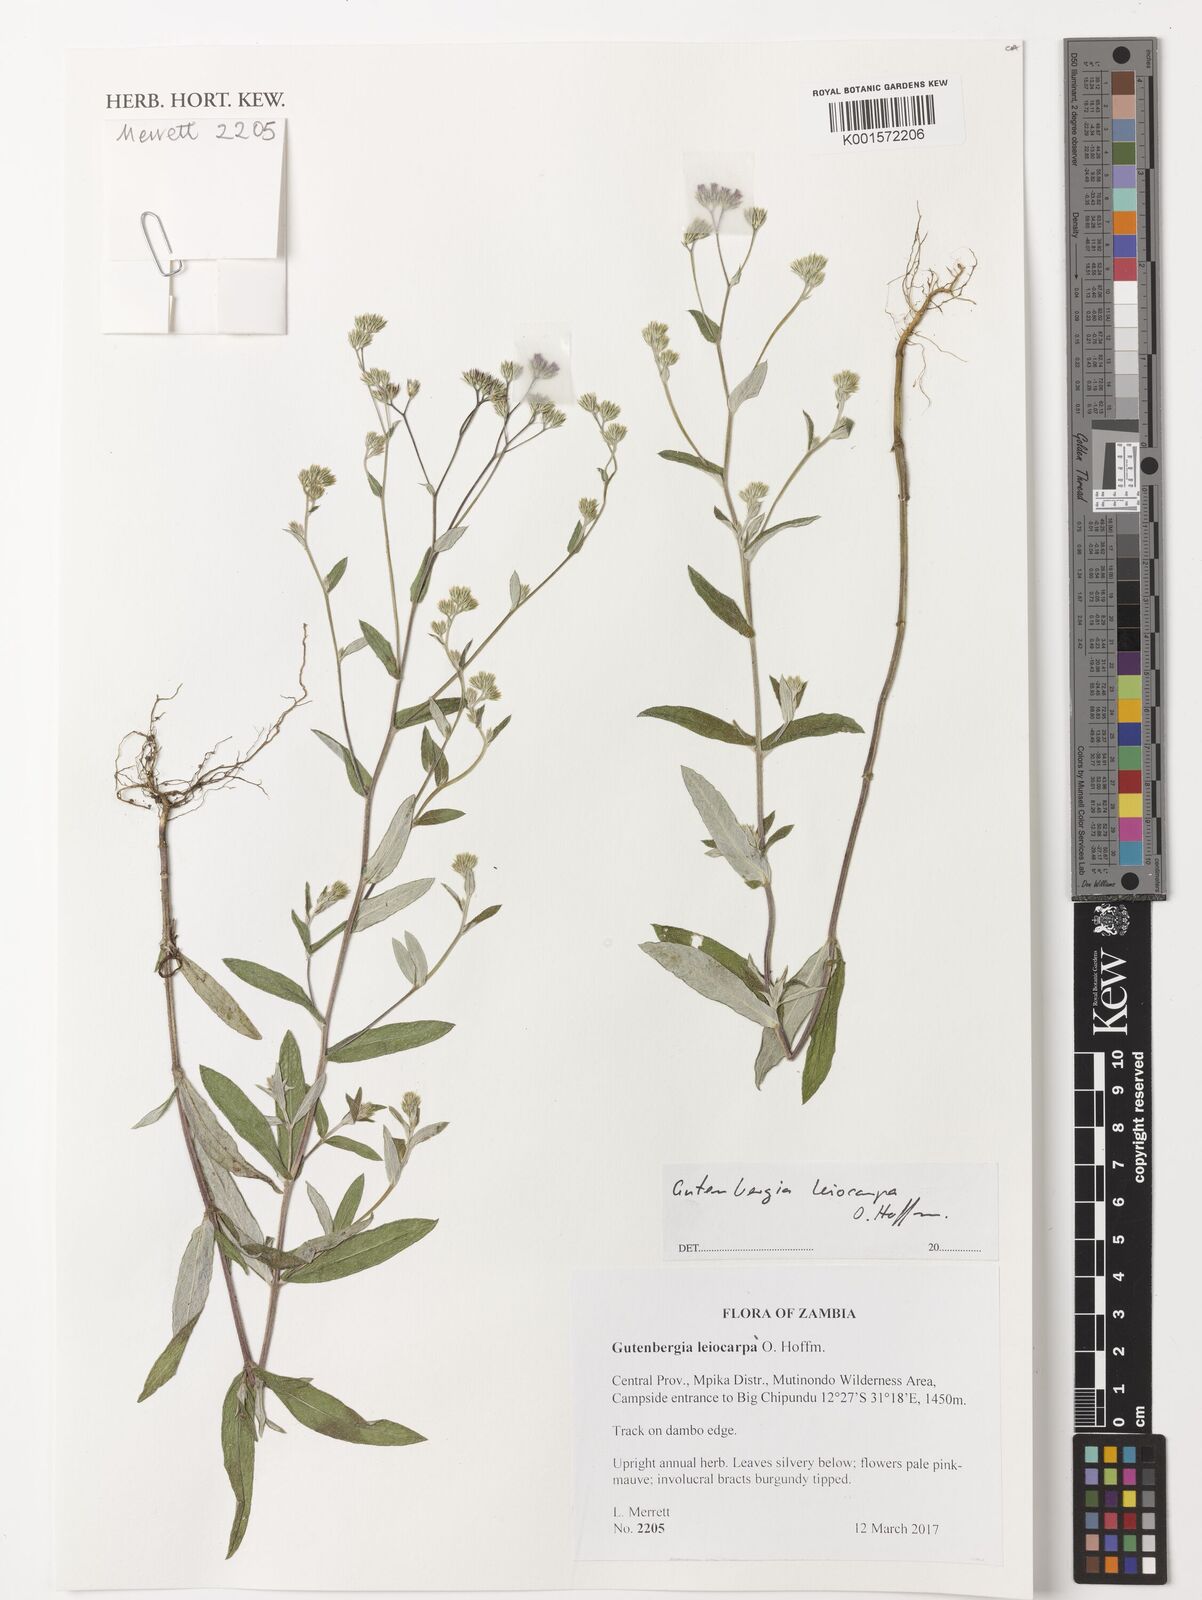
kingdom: Plantae
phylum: Tracheophyta
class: Magnoliopsida
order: Asterales
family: Asteraceae
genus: Gutenbergia
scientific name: Gutenbergia leiocarpa
